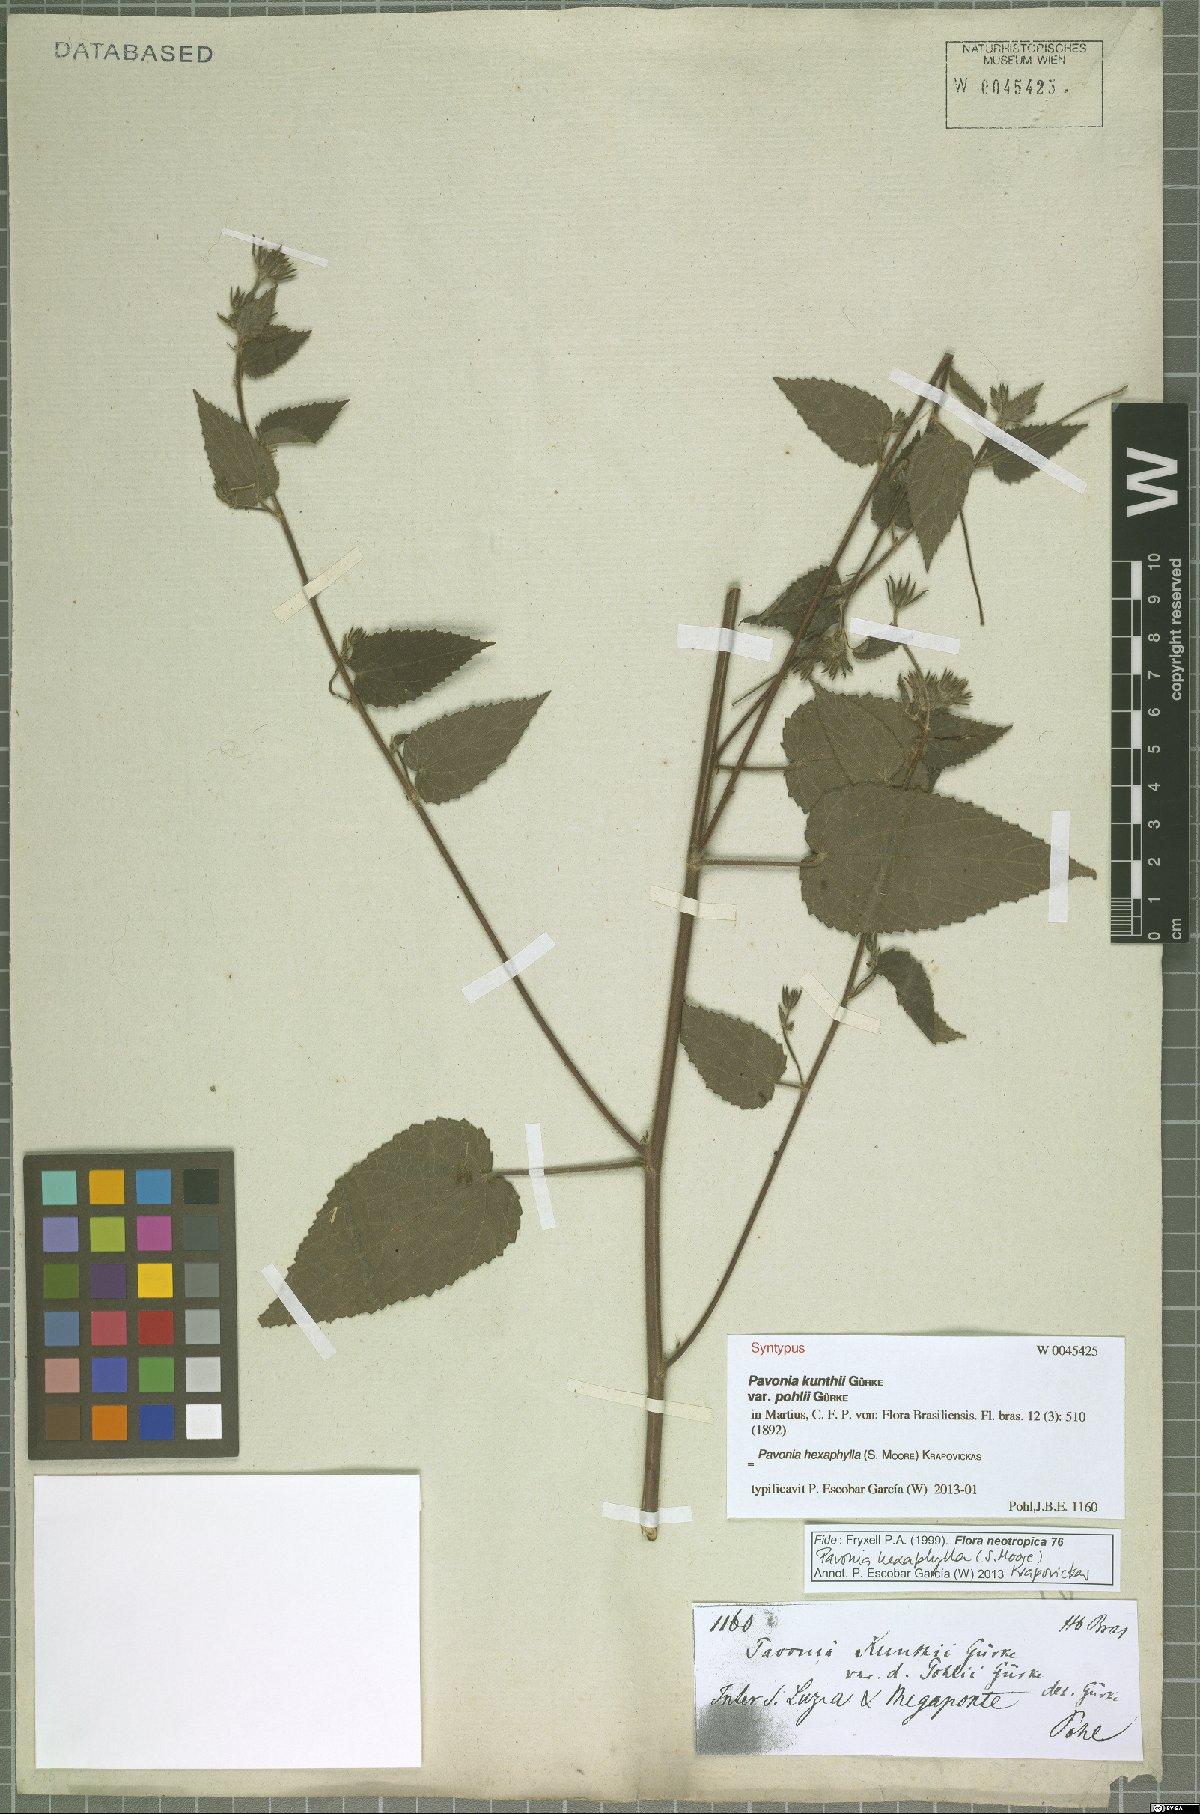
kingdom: Plantae
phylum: Tracheophyta
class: Magnoliopsida
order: Malvales
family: Malvaceae
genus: Pavonia
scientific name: Pavonia hexaphylla
